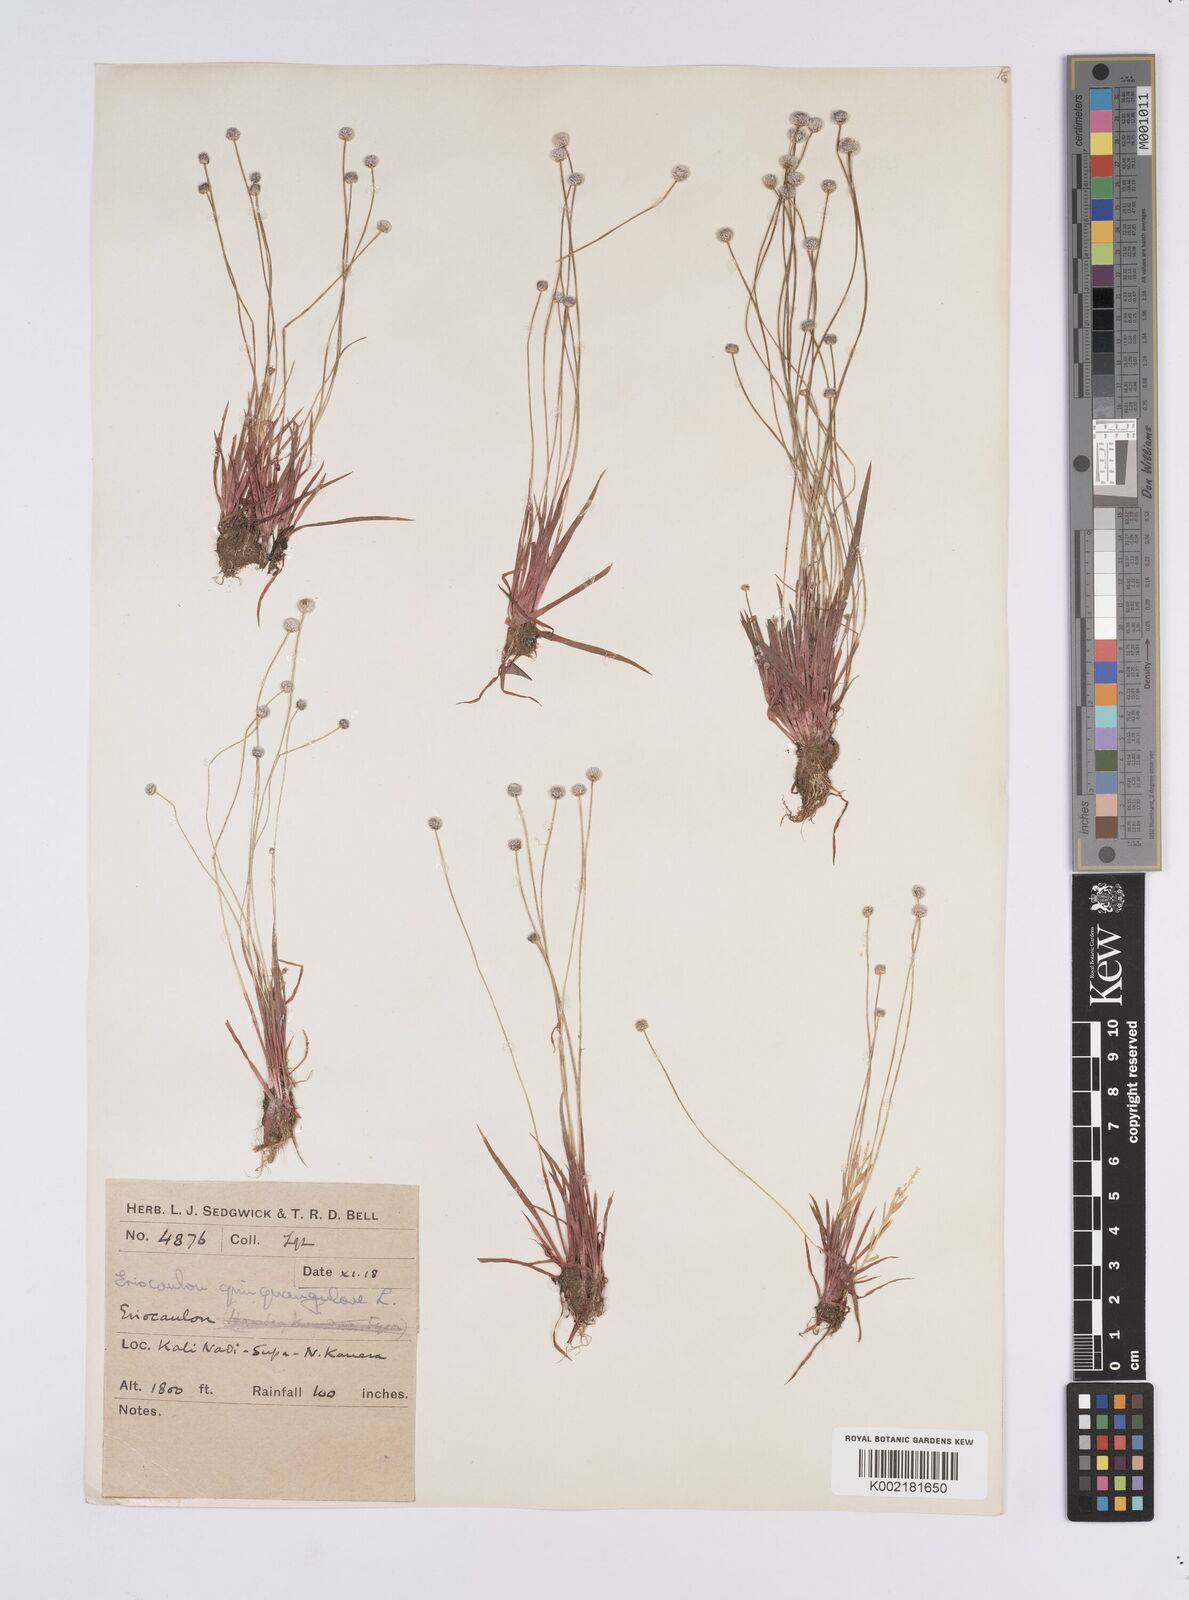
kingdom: Plantae
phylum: Tracheophyta
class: Liliopsida
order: Poales
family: Eriocaulaceae
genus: Eriocaulon
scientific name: Eriocaulon quinquangulare
